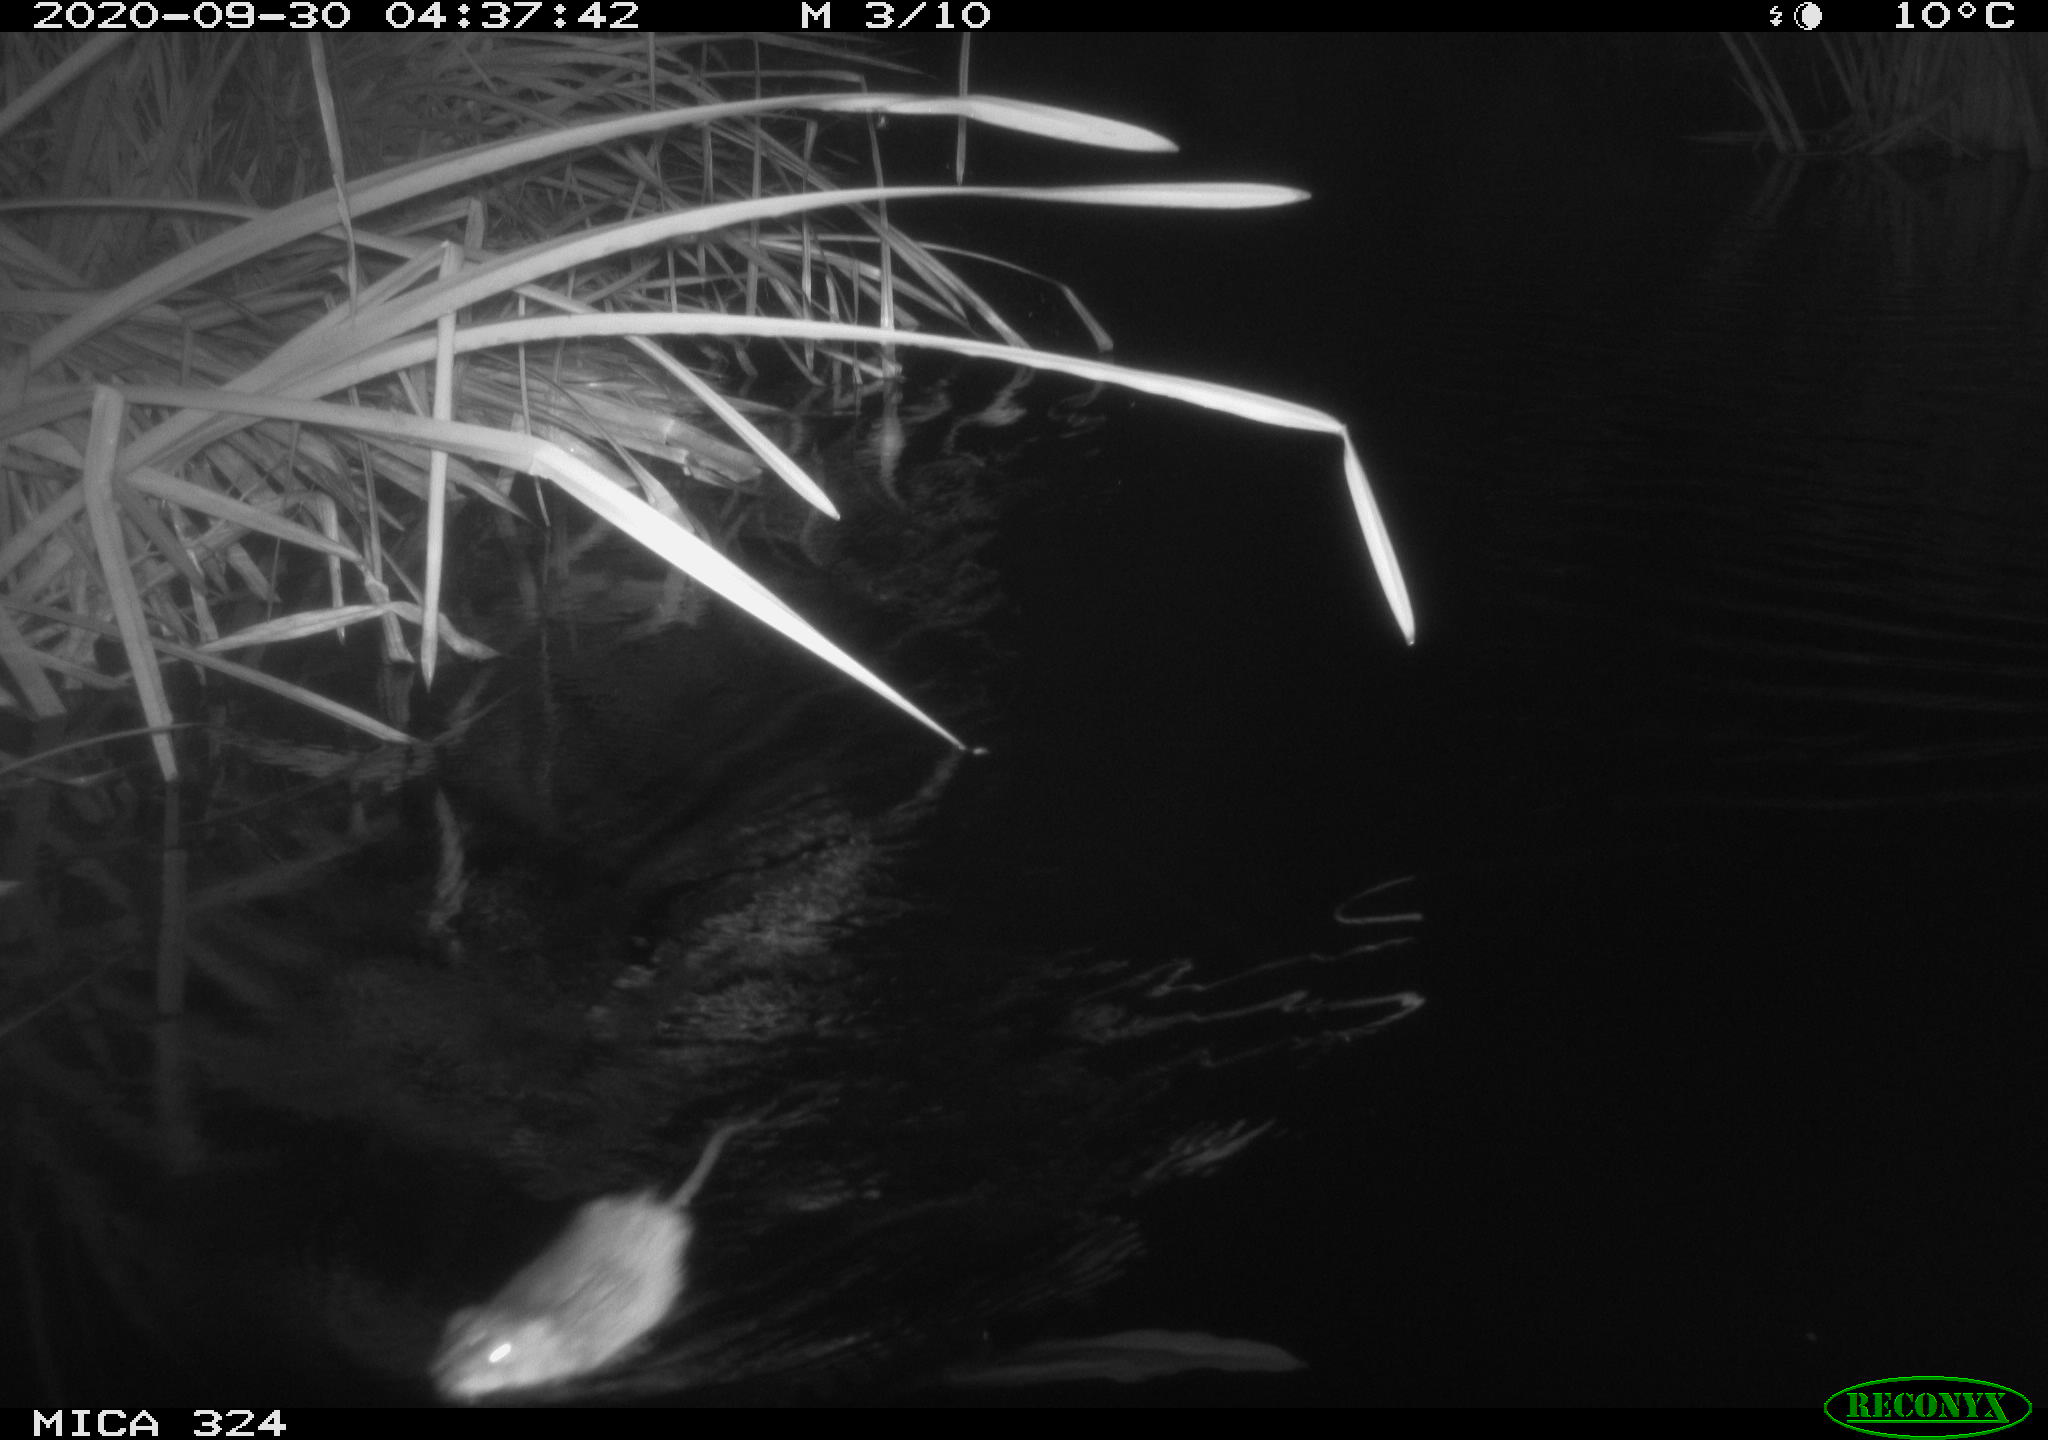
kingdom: Animalia
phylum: Chordata
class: Mammalia
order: Rodentia
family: Cricetidae
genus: Ondatra
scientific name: Ondatra zibethicus
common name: Muskrat
